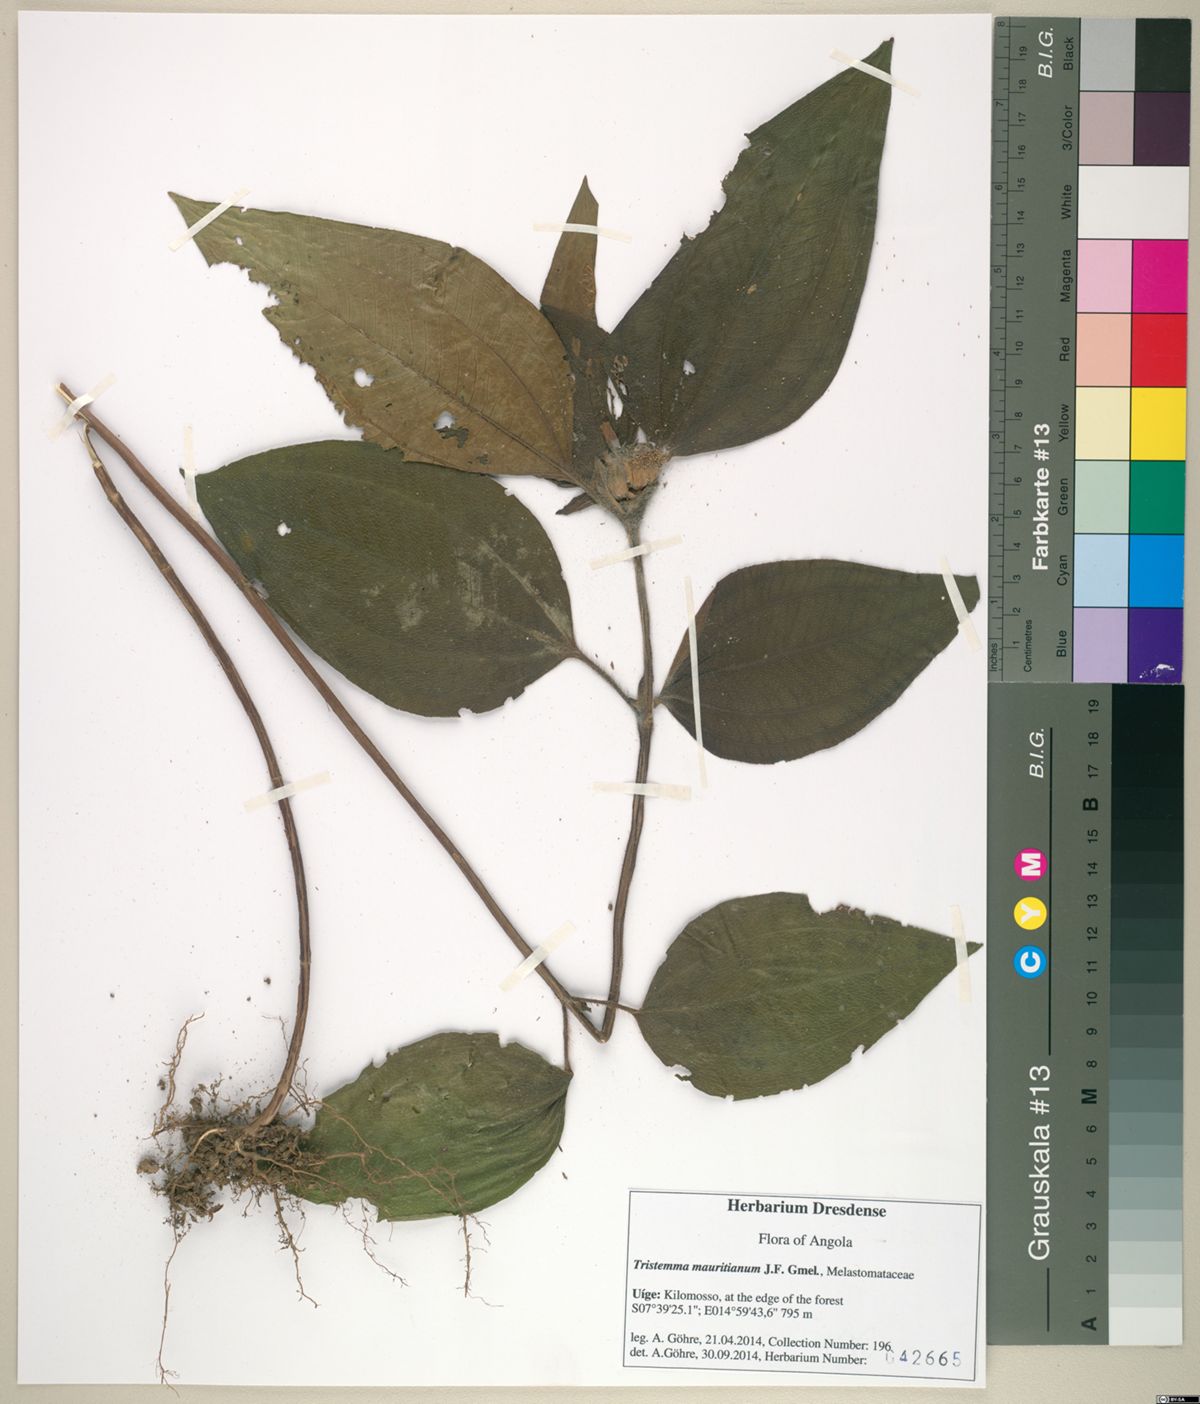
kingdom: Plantae
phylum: Tracheophyta
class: Magnoliopsida
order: Myrtales
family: Melastomataceae
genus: Tristemma
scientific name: Tristemma mauritianum
